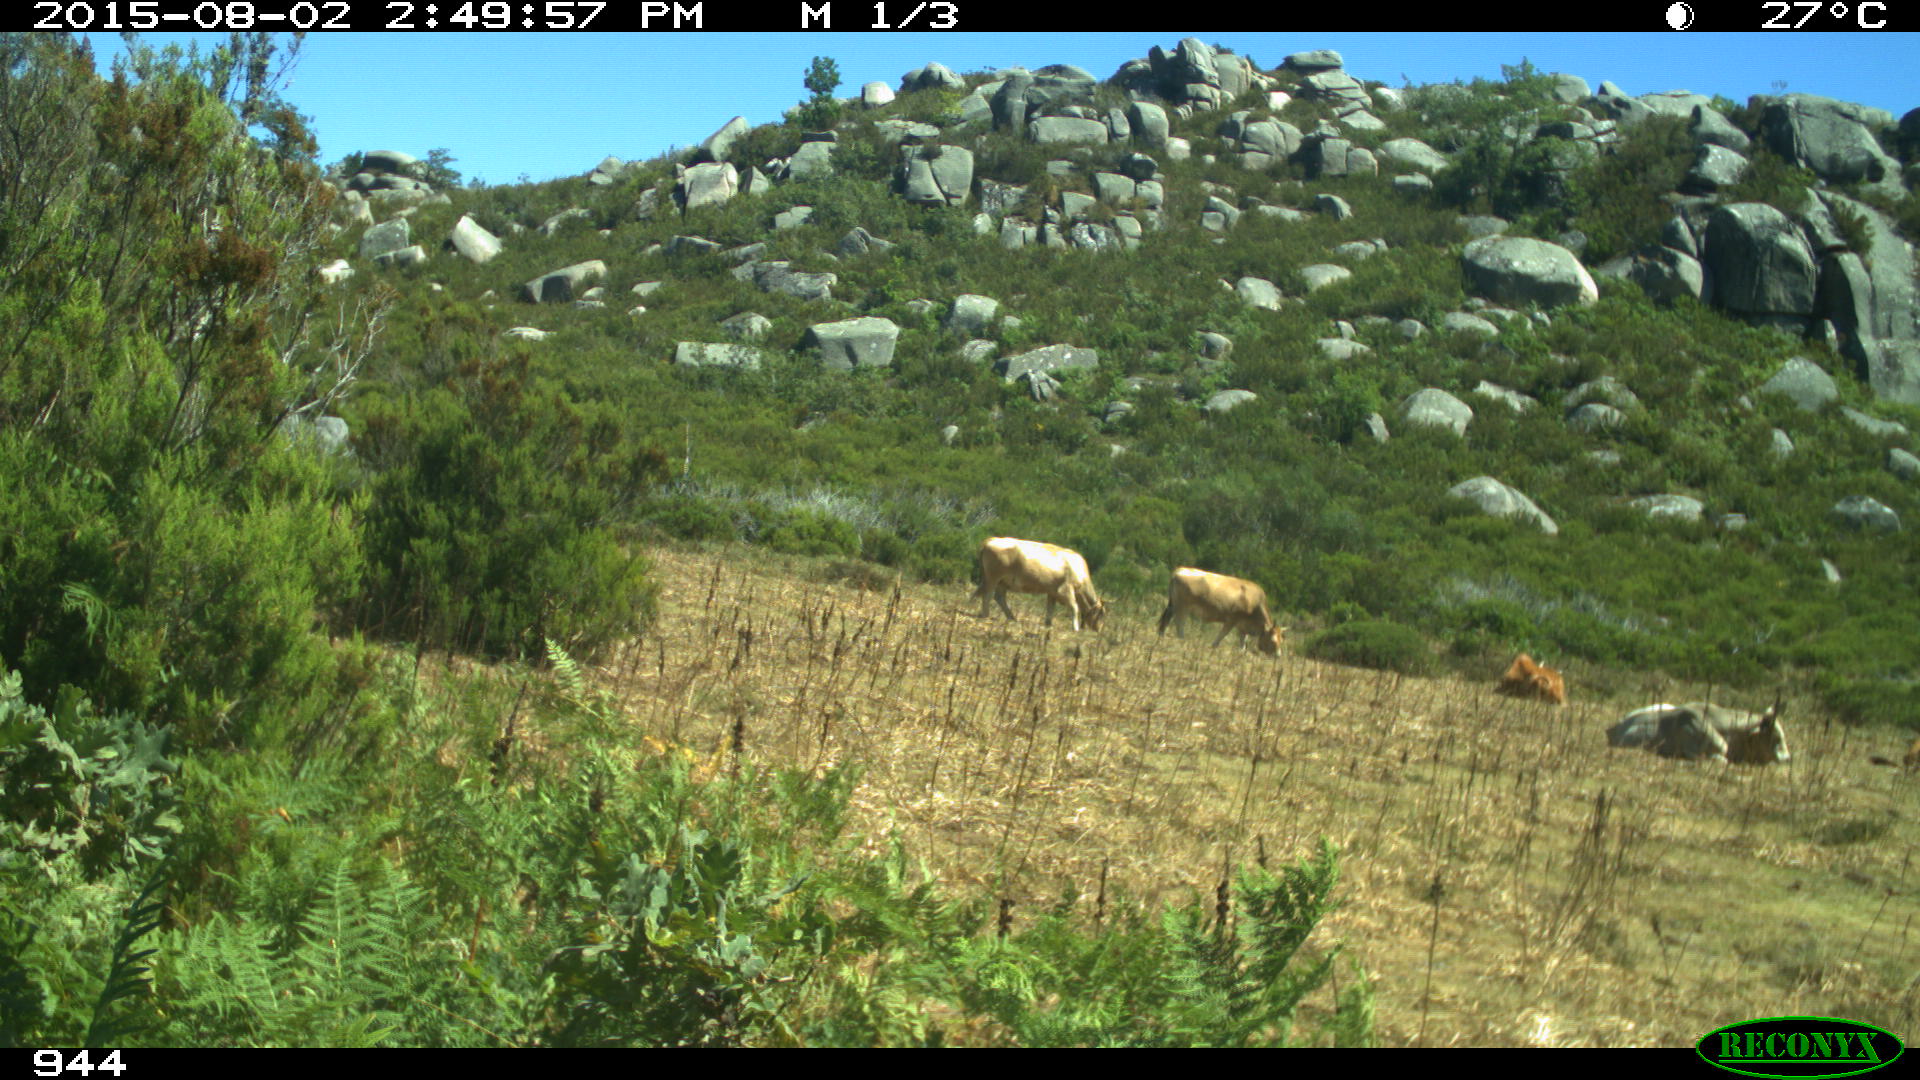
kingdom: Animalia
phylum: Chordata
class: Mammalia
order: Artiodactyla
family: Bovidae
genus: Bos
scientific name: Bos taurus
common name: Domesticated cattle
